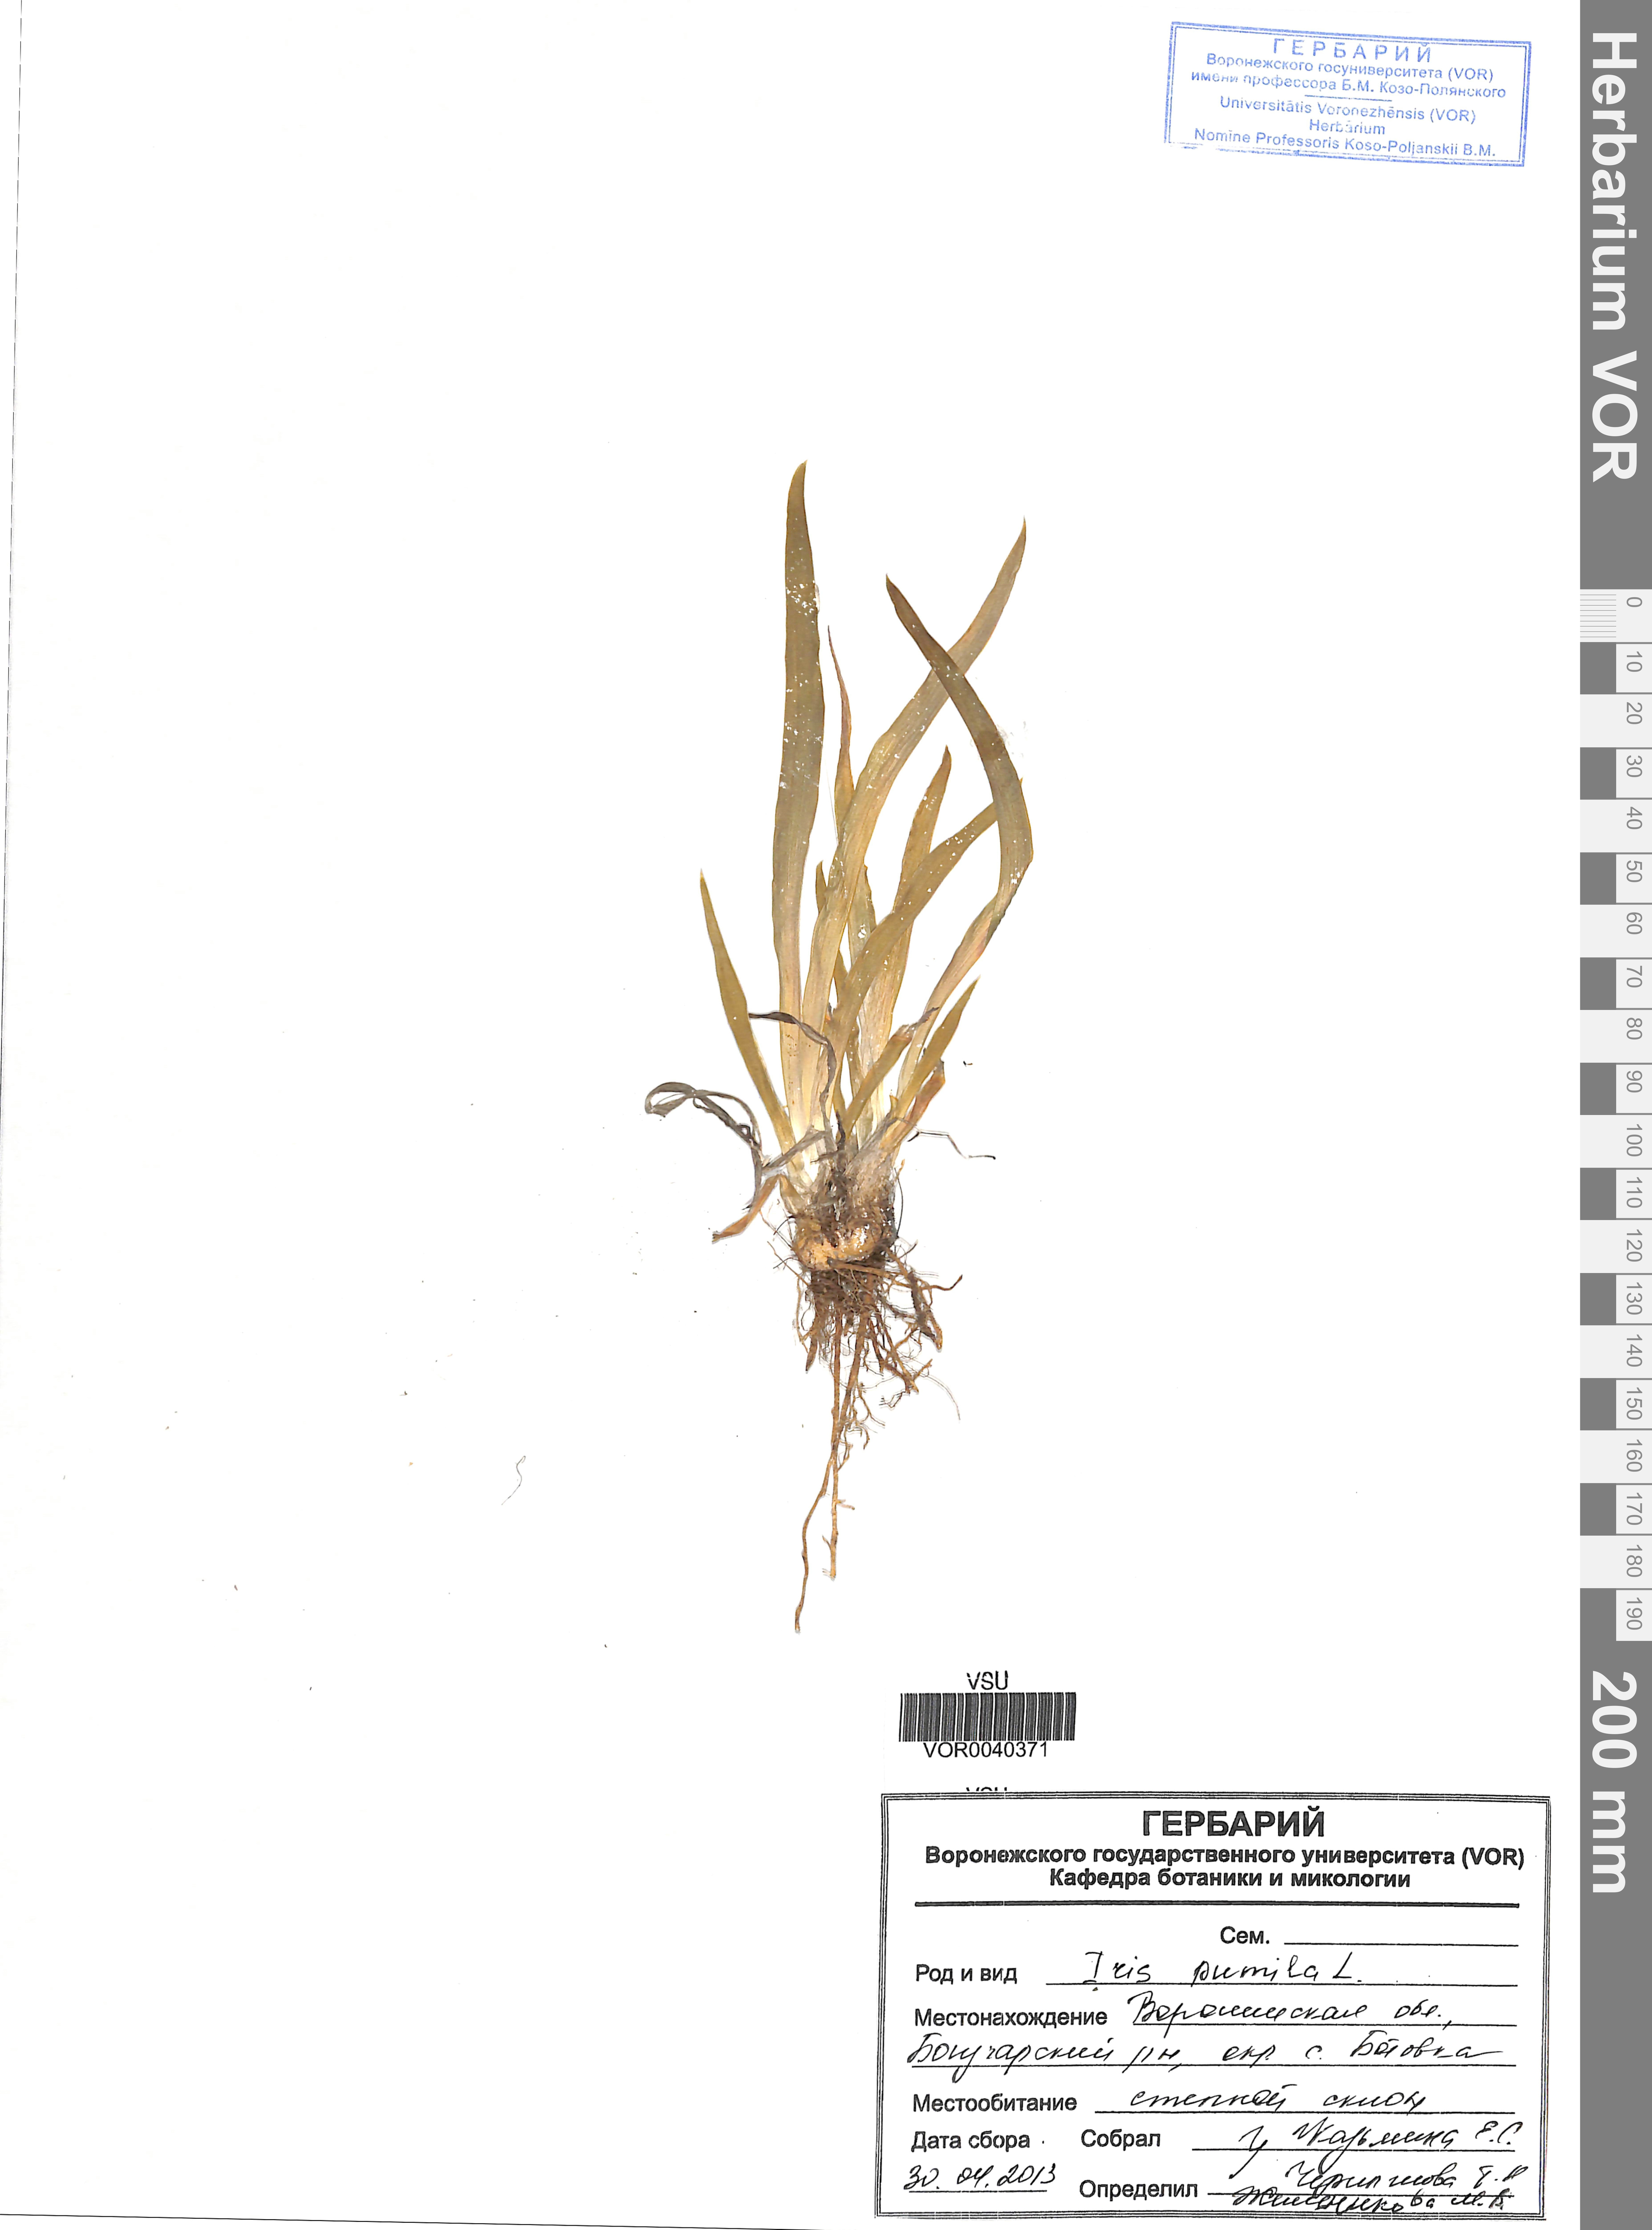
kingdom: Plantae
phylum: Tracheophyta
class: Liliopsida
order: Asparagales
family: Iridaceae
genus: Iris
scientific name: Iris pumila
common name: Dwarf iris
